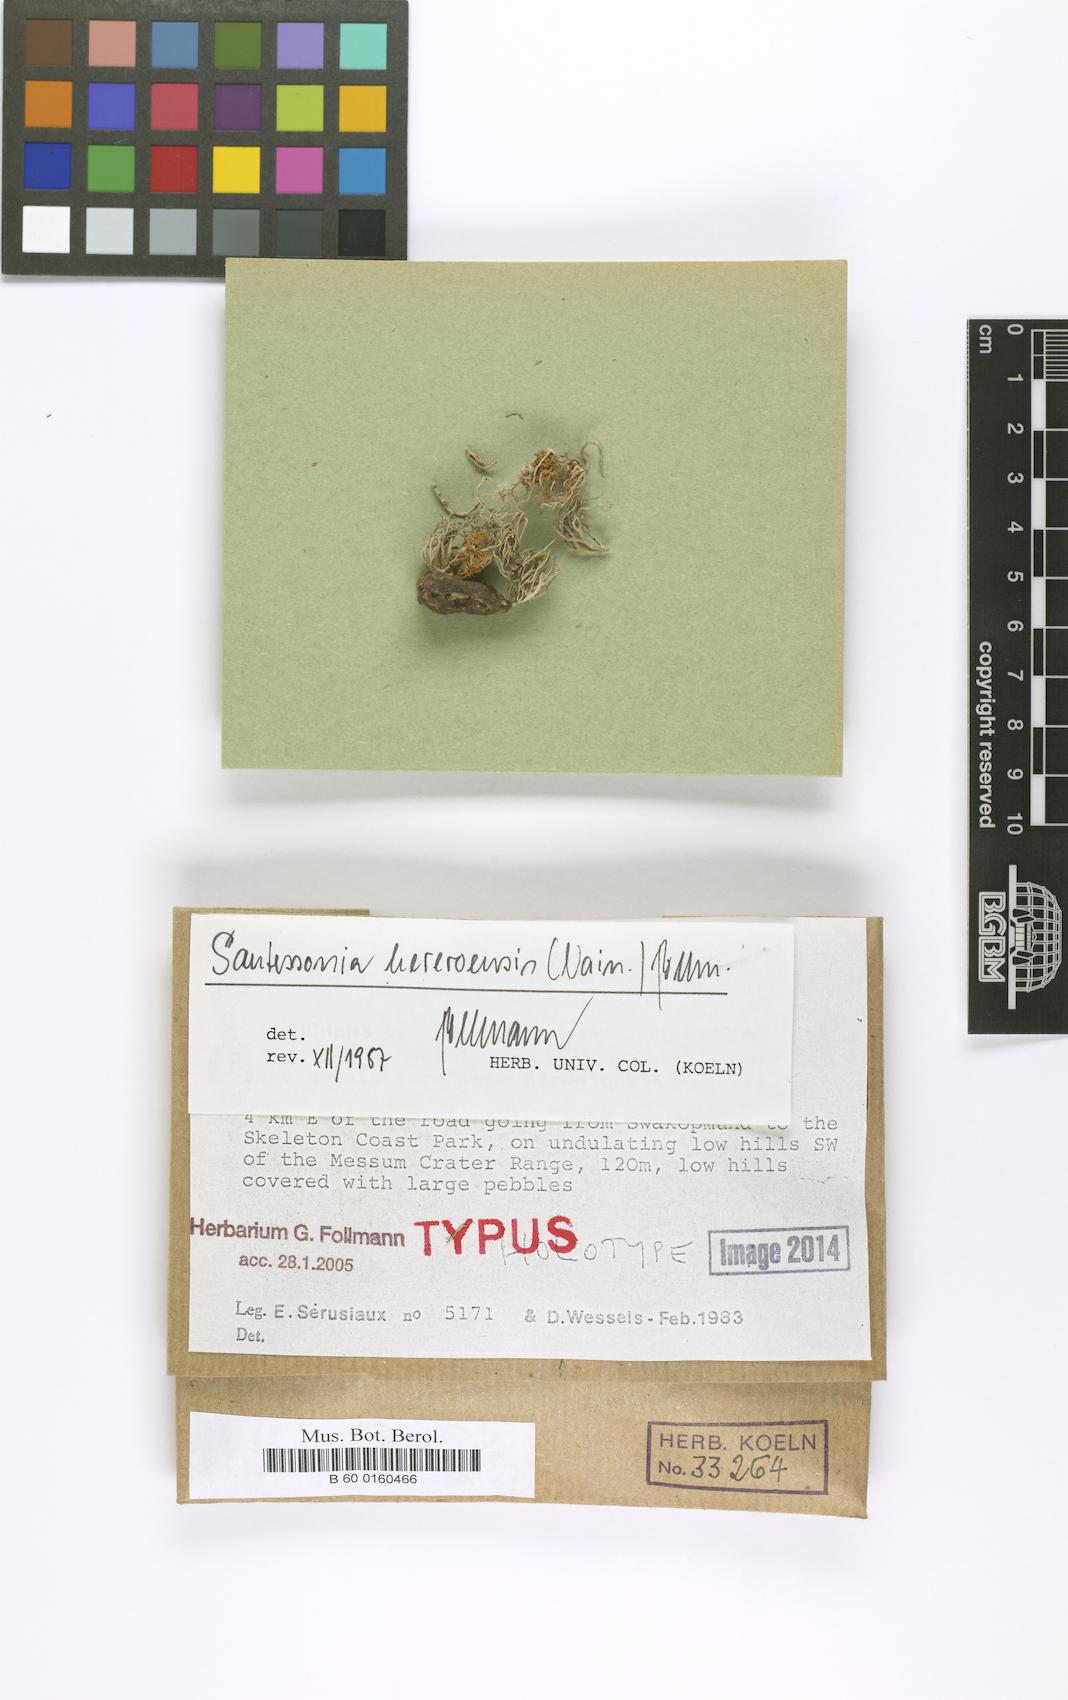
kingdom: Fungi
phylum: Ascomycota
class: Lecanoromycetes
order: Caliciales
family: Caliciaceae
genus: Santessonia
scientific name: Santessonia sorediata
